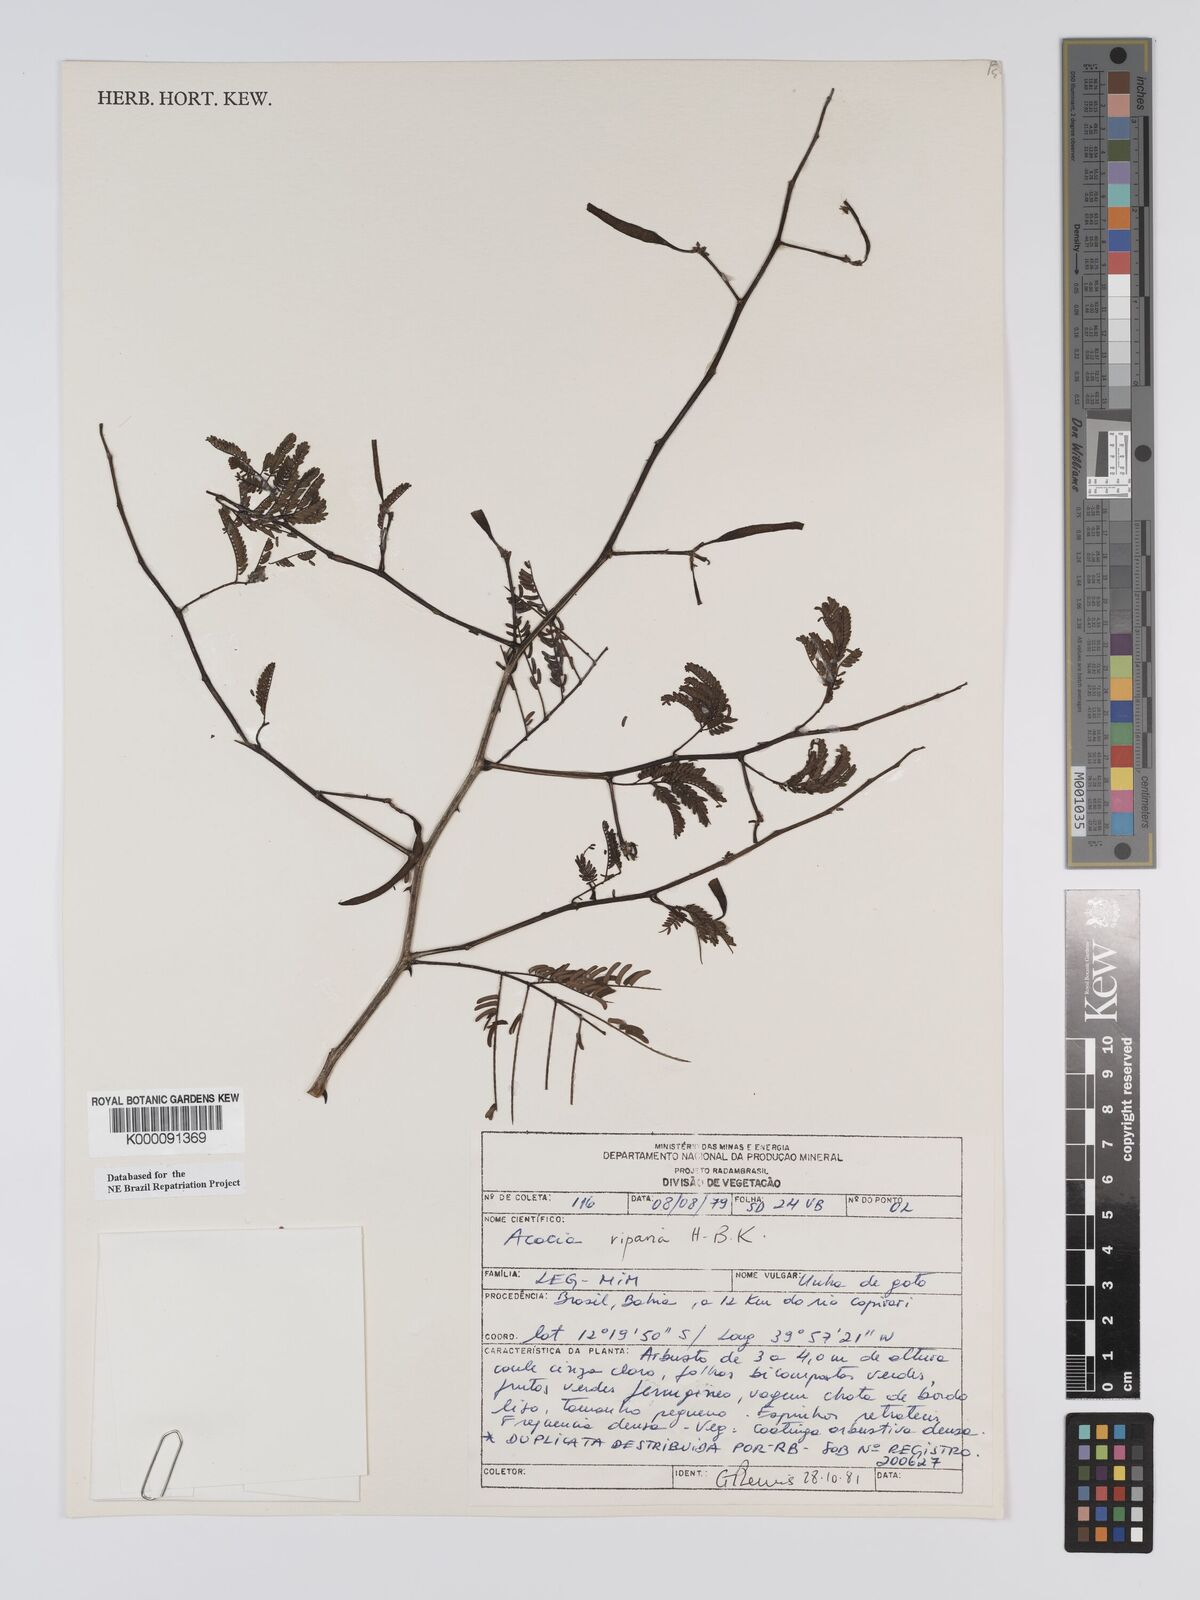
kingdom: Plantae
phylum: Tracheophyta
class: Magnoliopsida
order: Fabales
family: Fabaceae
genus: Senegalia
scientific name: Senegalia riparia
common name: Catch-and-keep
